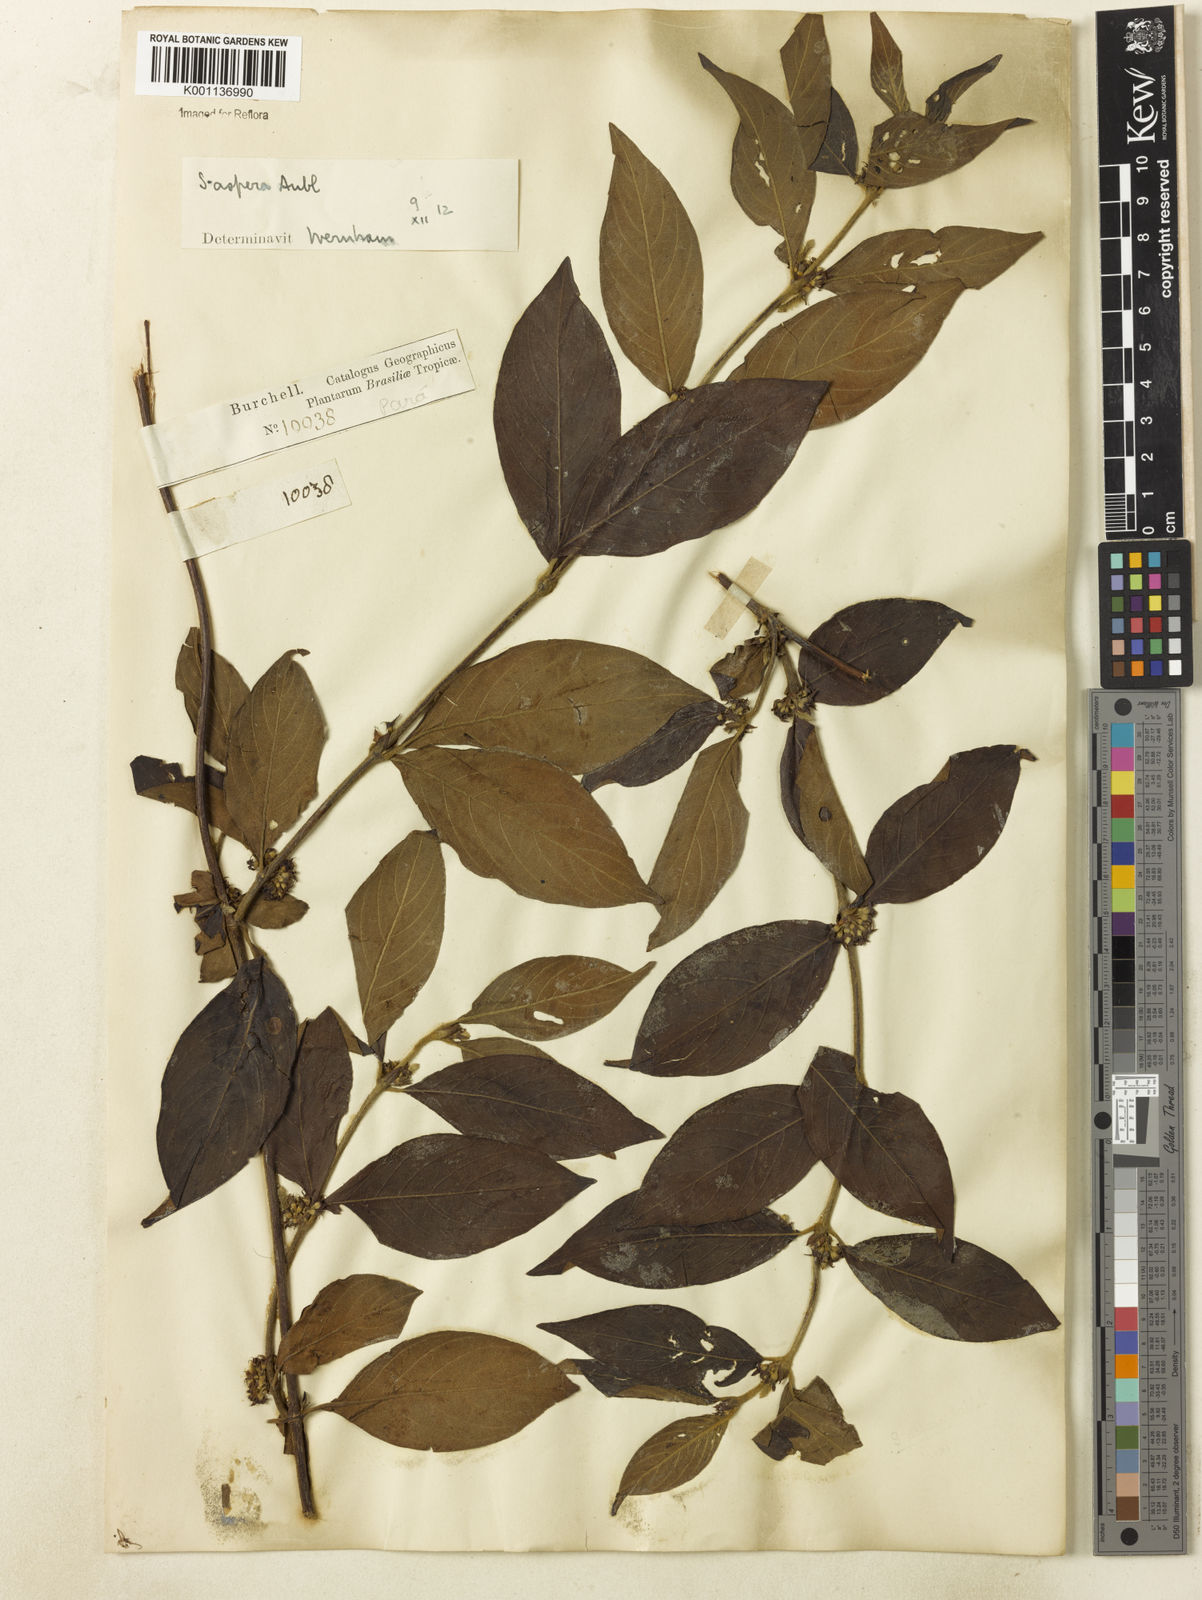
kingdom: Plantae
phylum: Tracheophyta
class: Magnoliopsida
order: Gentianales
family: Rubiaceae
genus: Sabicea
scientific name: Sabicea aspera
